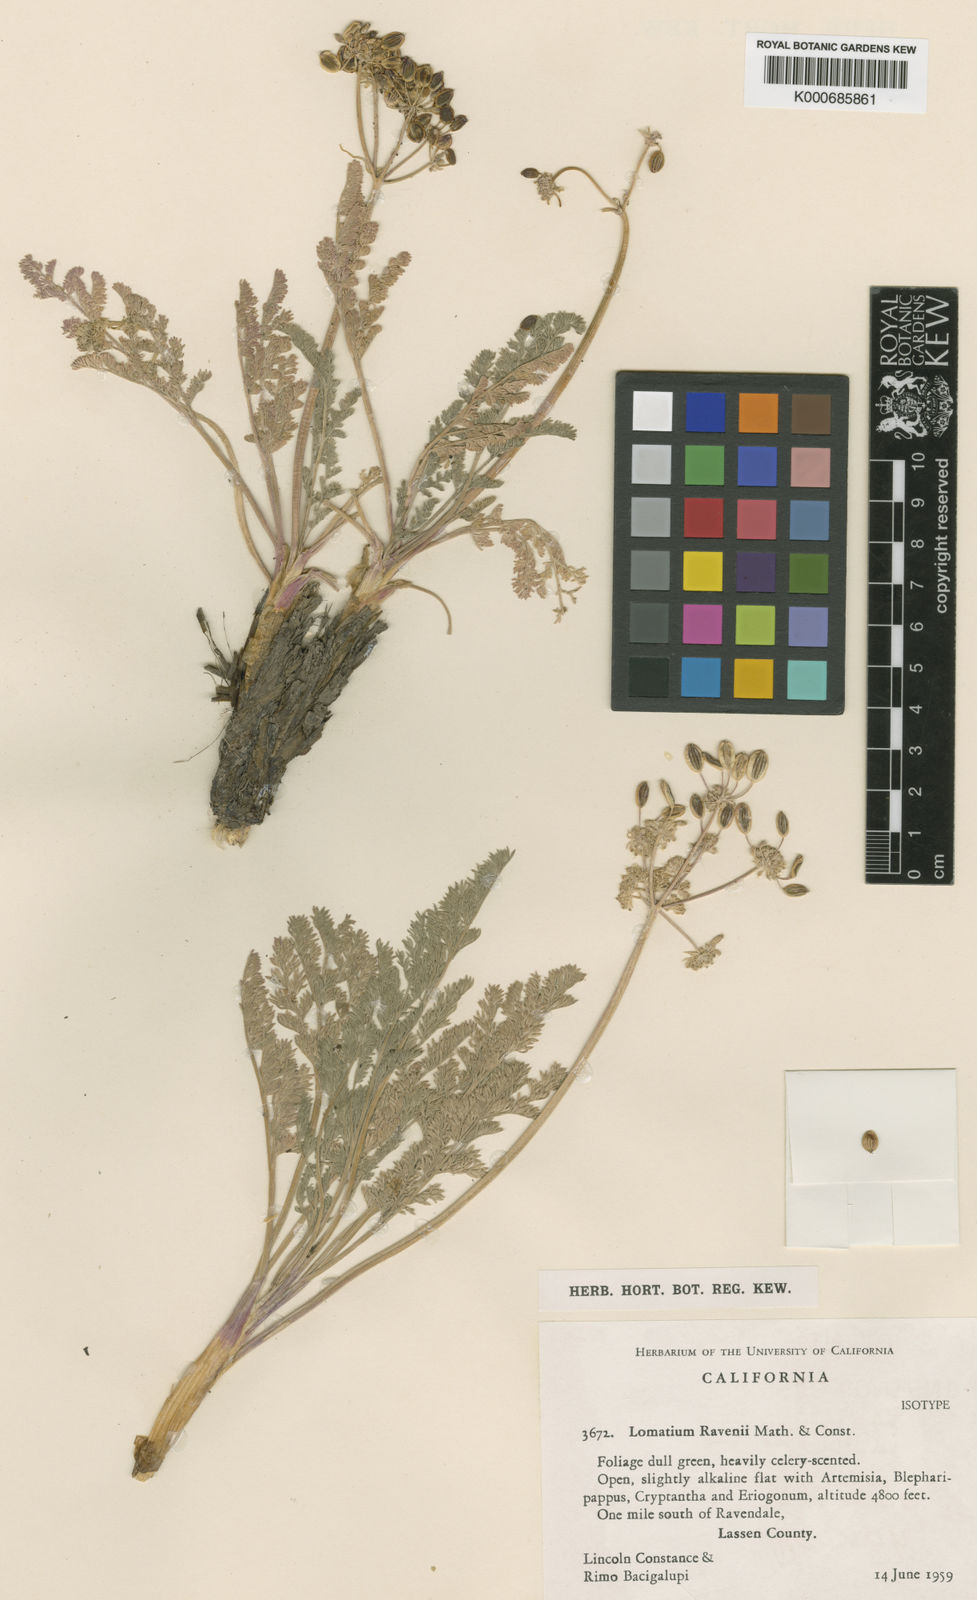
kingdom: Plantae
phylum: Tracheophyta
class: Magnoliopsida
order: Apiales
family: Apiaceae
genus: Lomatium
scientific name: Lomatium ravenii
